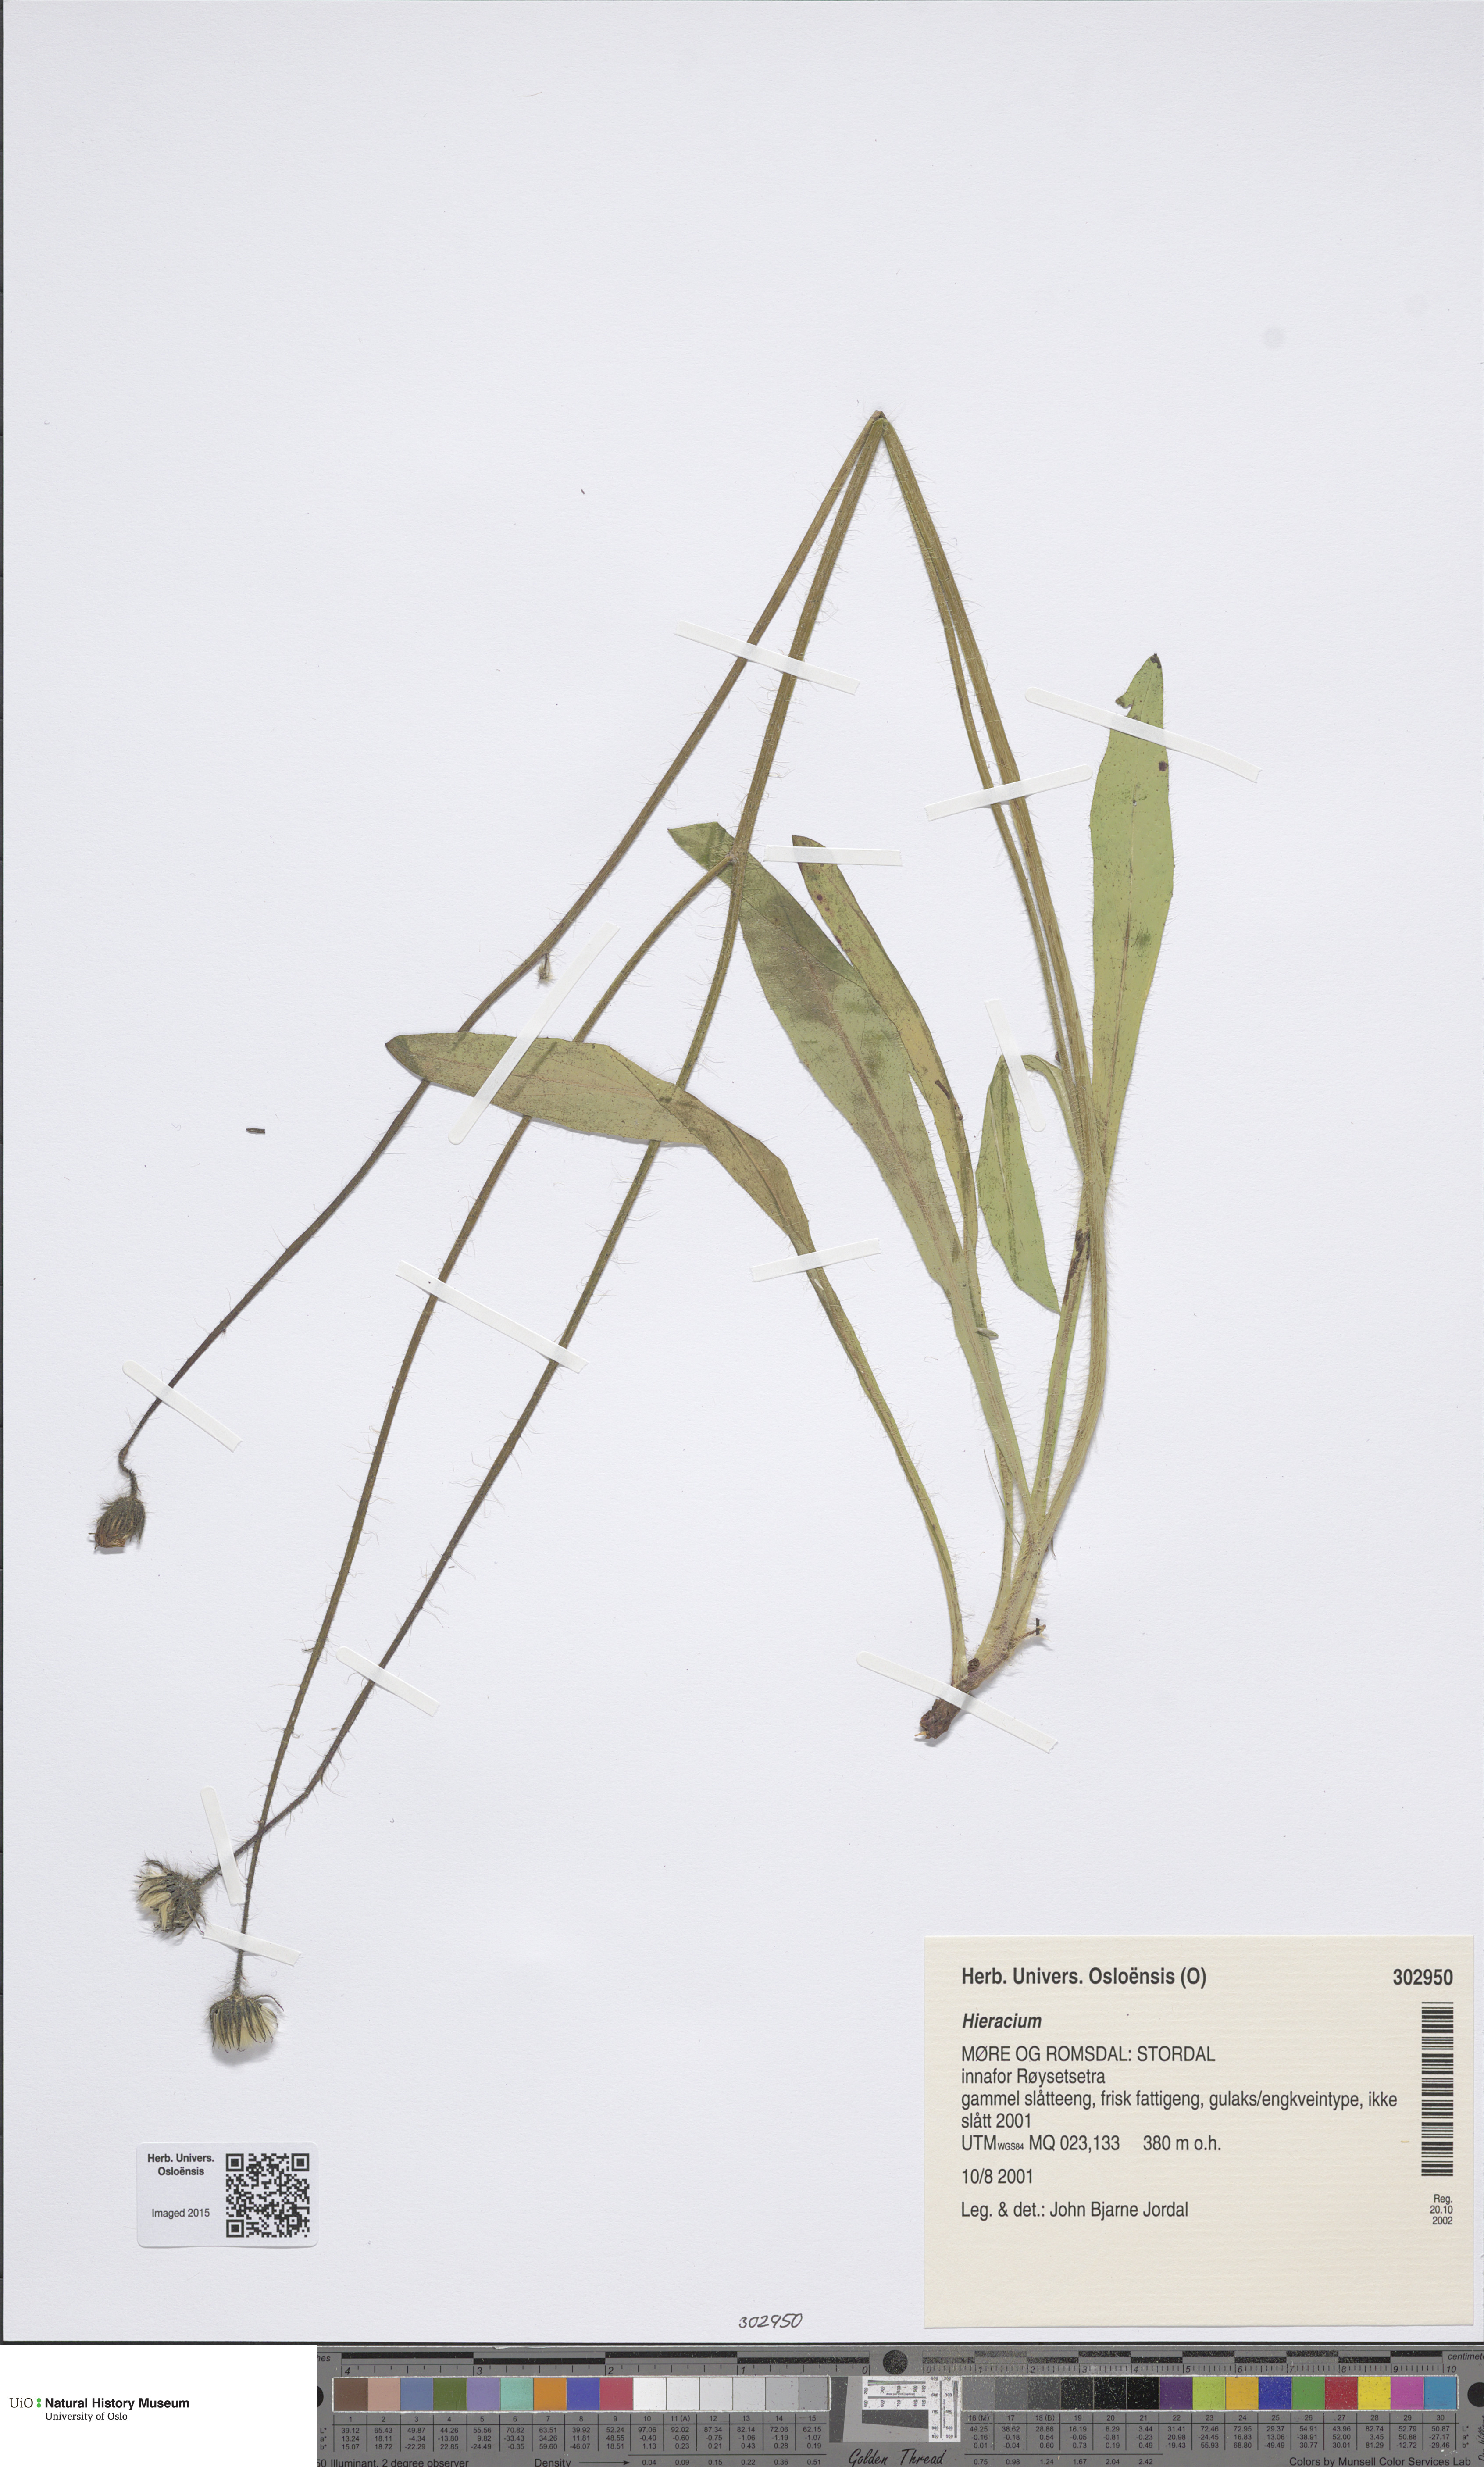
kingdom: Plantae
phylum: Tracheophyta
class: Magnoliopsida
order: Asterales
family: Asteraceae
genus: Hieracium
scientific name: Hieracium
